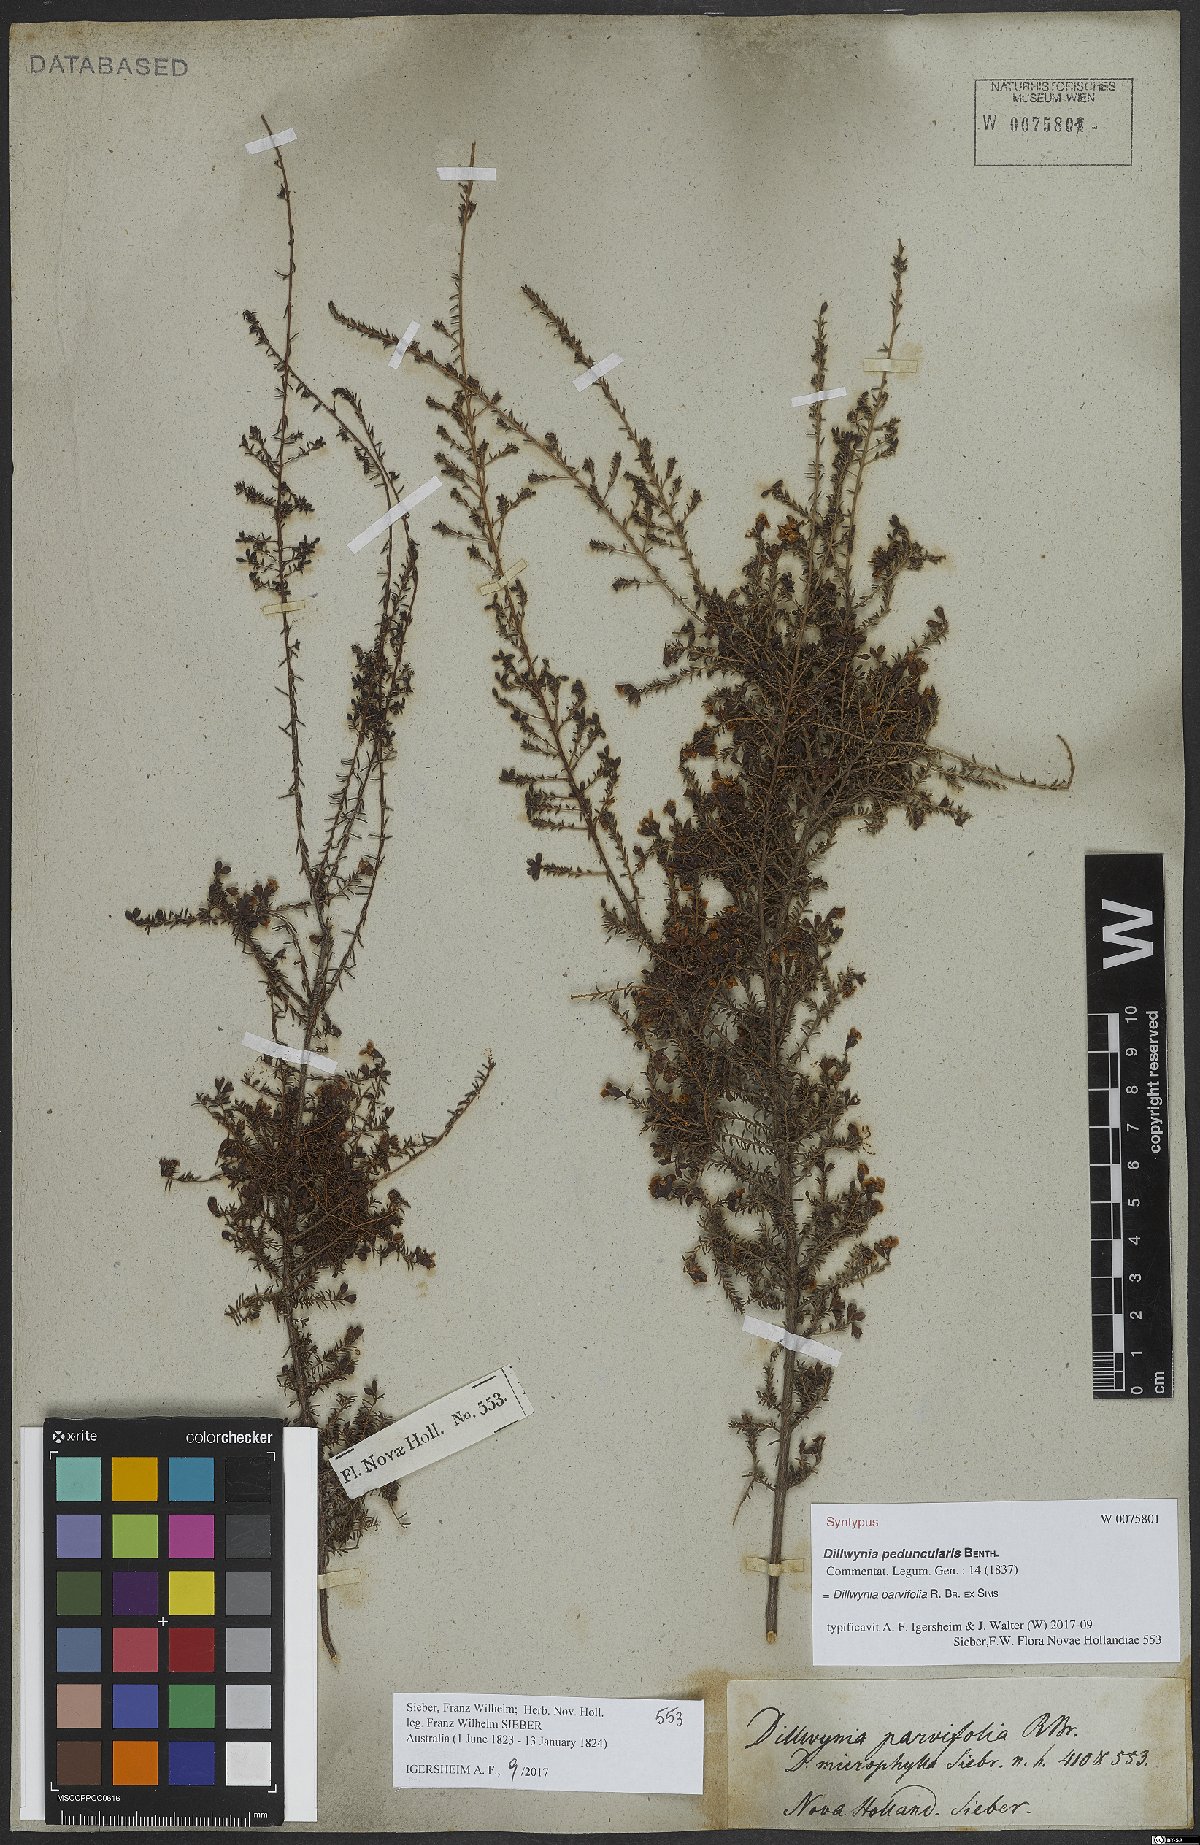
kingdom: Plantae
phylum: Tracheophyta
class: Magnoliopsida
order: Fabales
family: Fabaceae
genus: Dillwynia
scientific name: Dillwynia parvifolia
